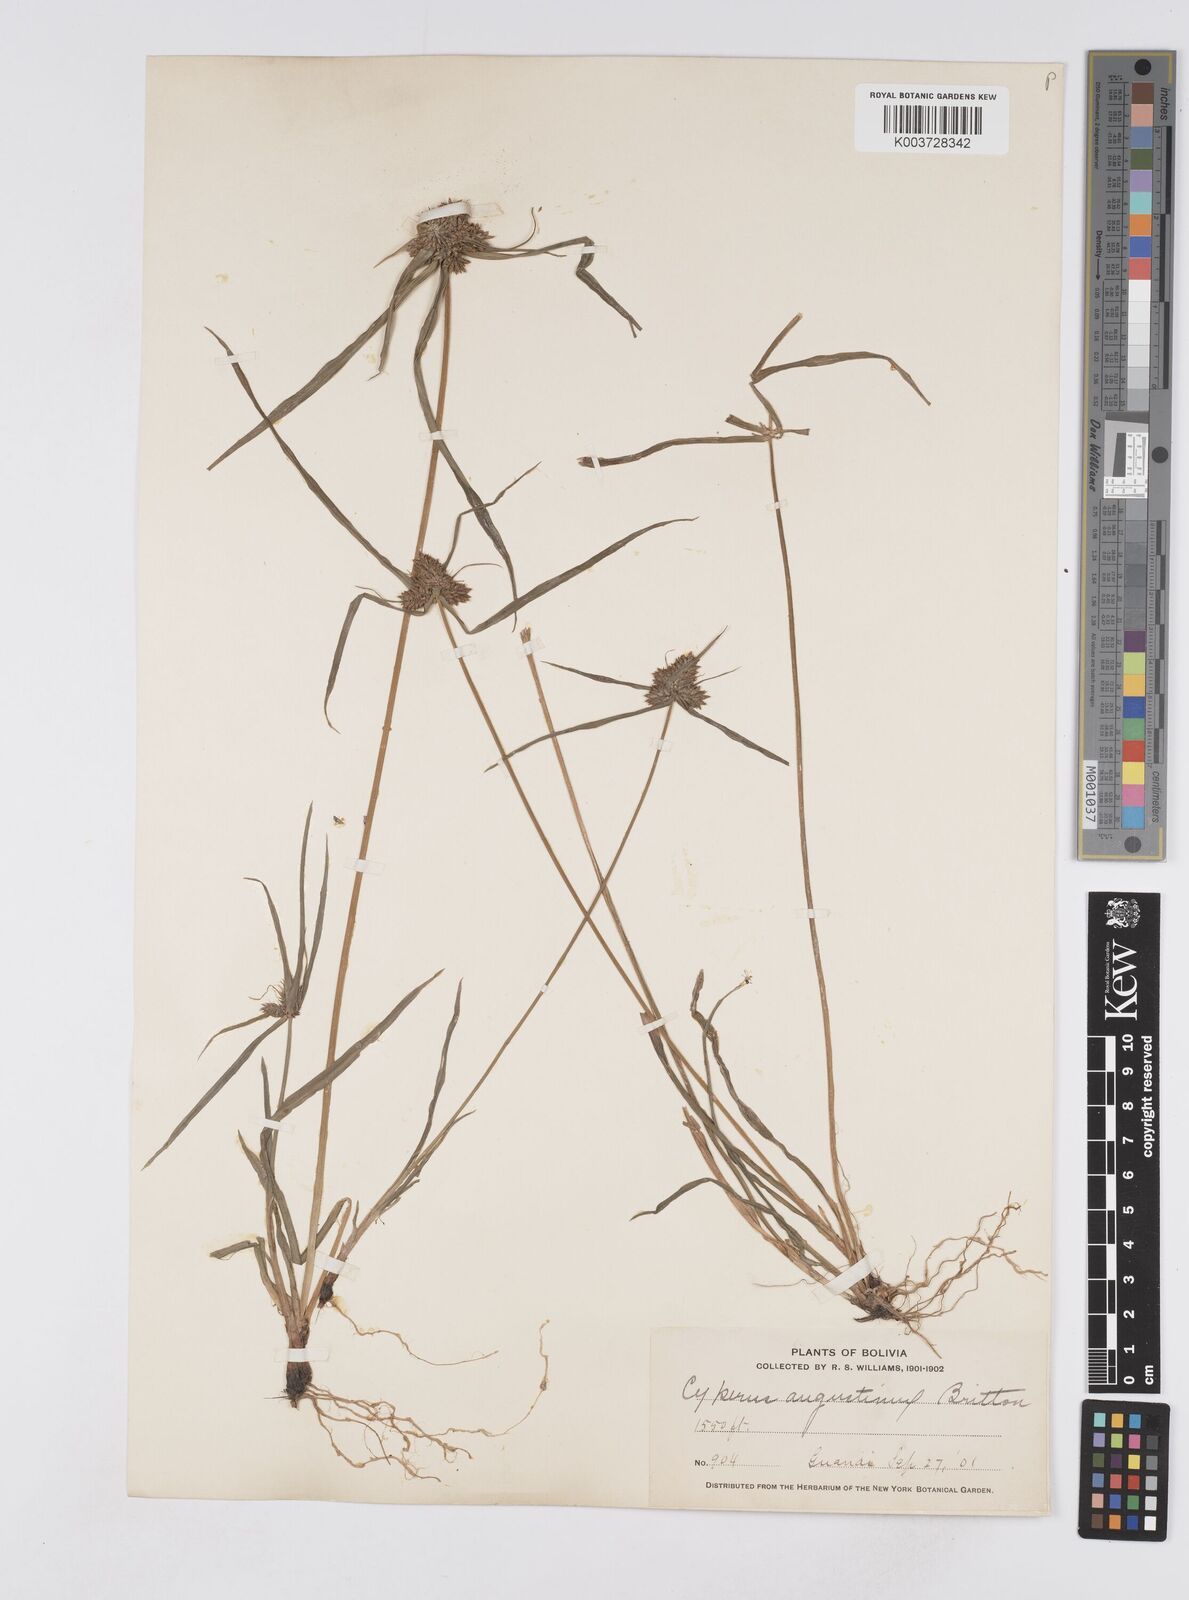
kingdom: Plantae
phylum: Tracheophyta
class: Liliopsida
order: Poales
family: Cyperaceae
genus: Cyperus
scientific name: Cyperus leonensis
